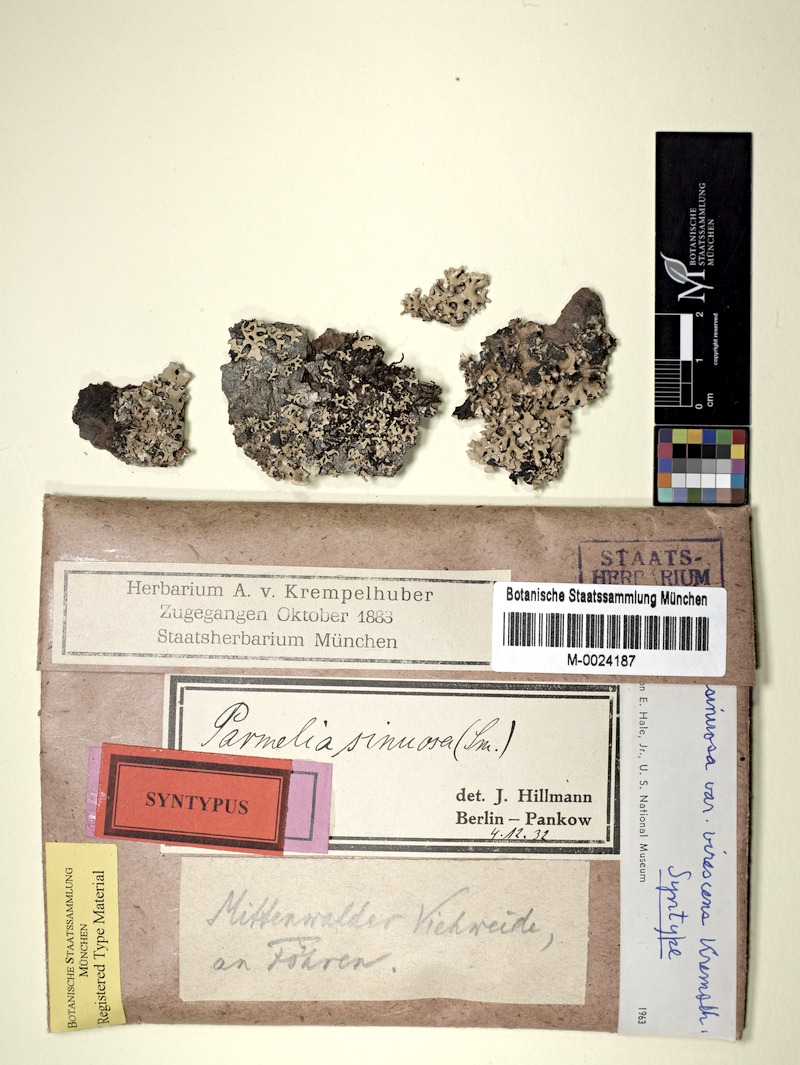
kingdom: Fungi
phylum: Ascomycota
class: Lecanoromycetes
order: Lecanorales
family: Parmeliaceae
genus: Hypotrachyna
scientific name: Hypotrachyna sinuosa
